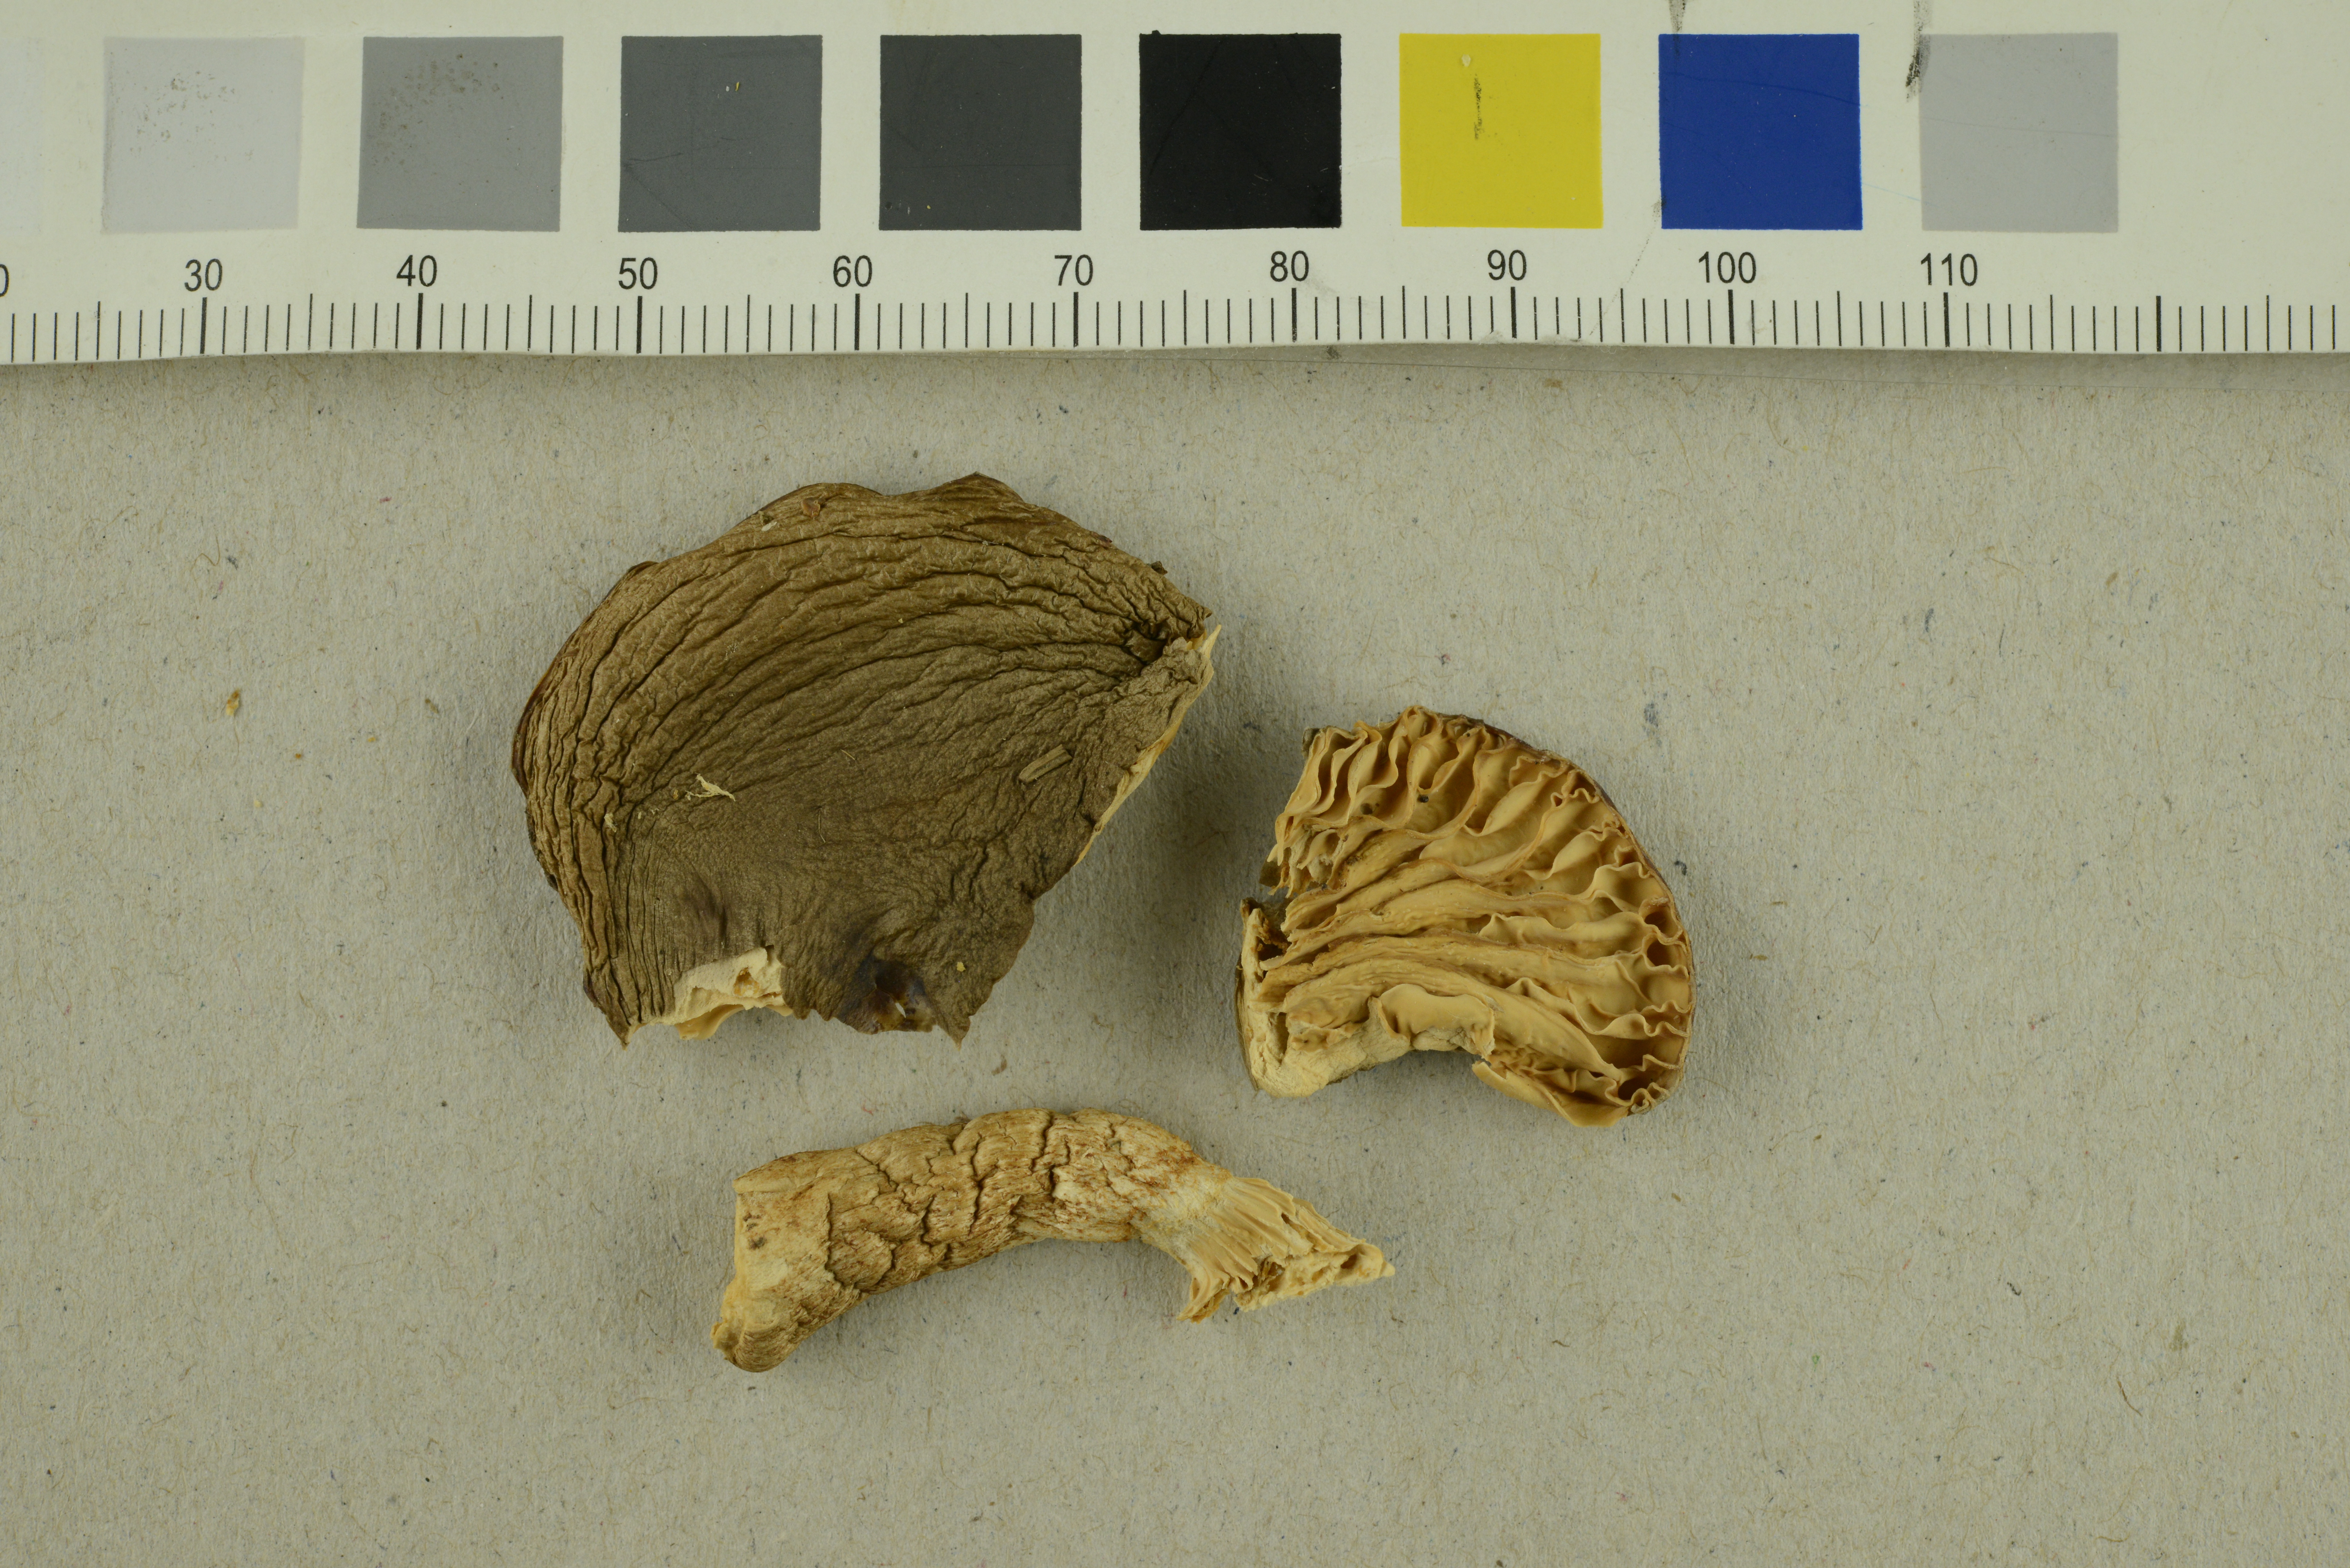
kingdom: Fungi
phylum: Basidiomycota
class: Agaricomycetes
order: Agaricales
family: Hygrophoraceae
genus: Hygrophorus
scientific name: Hygrophorus agathosmus
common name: Almond woodwax
